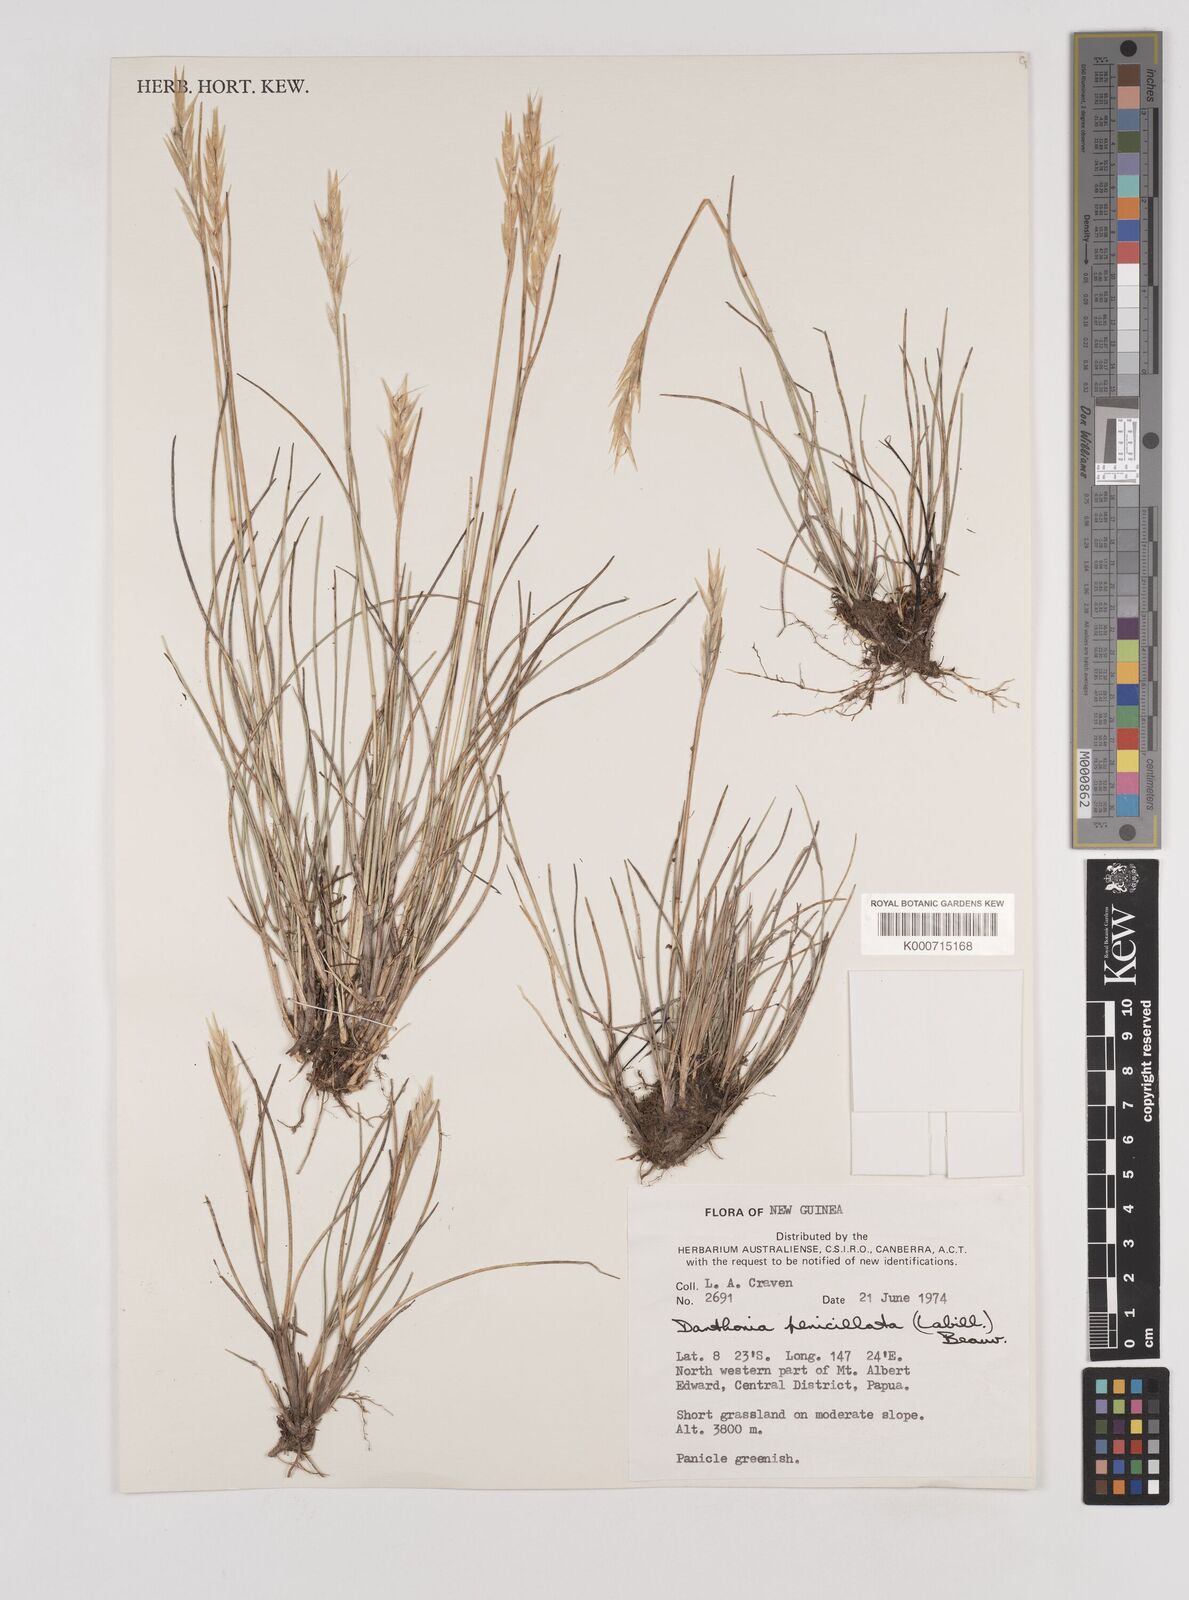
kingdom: Plantae
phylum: Tracheophyta
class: Liliopsida
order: Poales
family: Poaceae
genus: Rytidosperma
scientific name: Rytidosperma penicillatum
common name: Hairy wallaby grass
